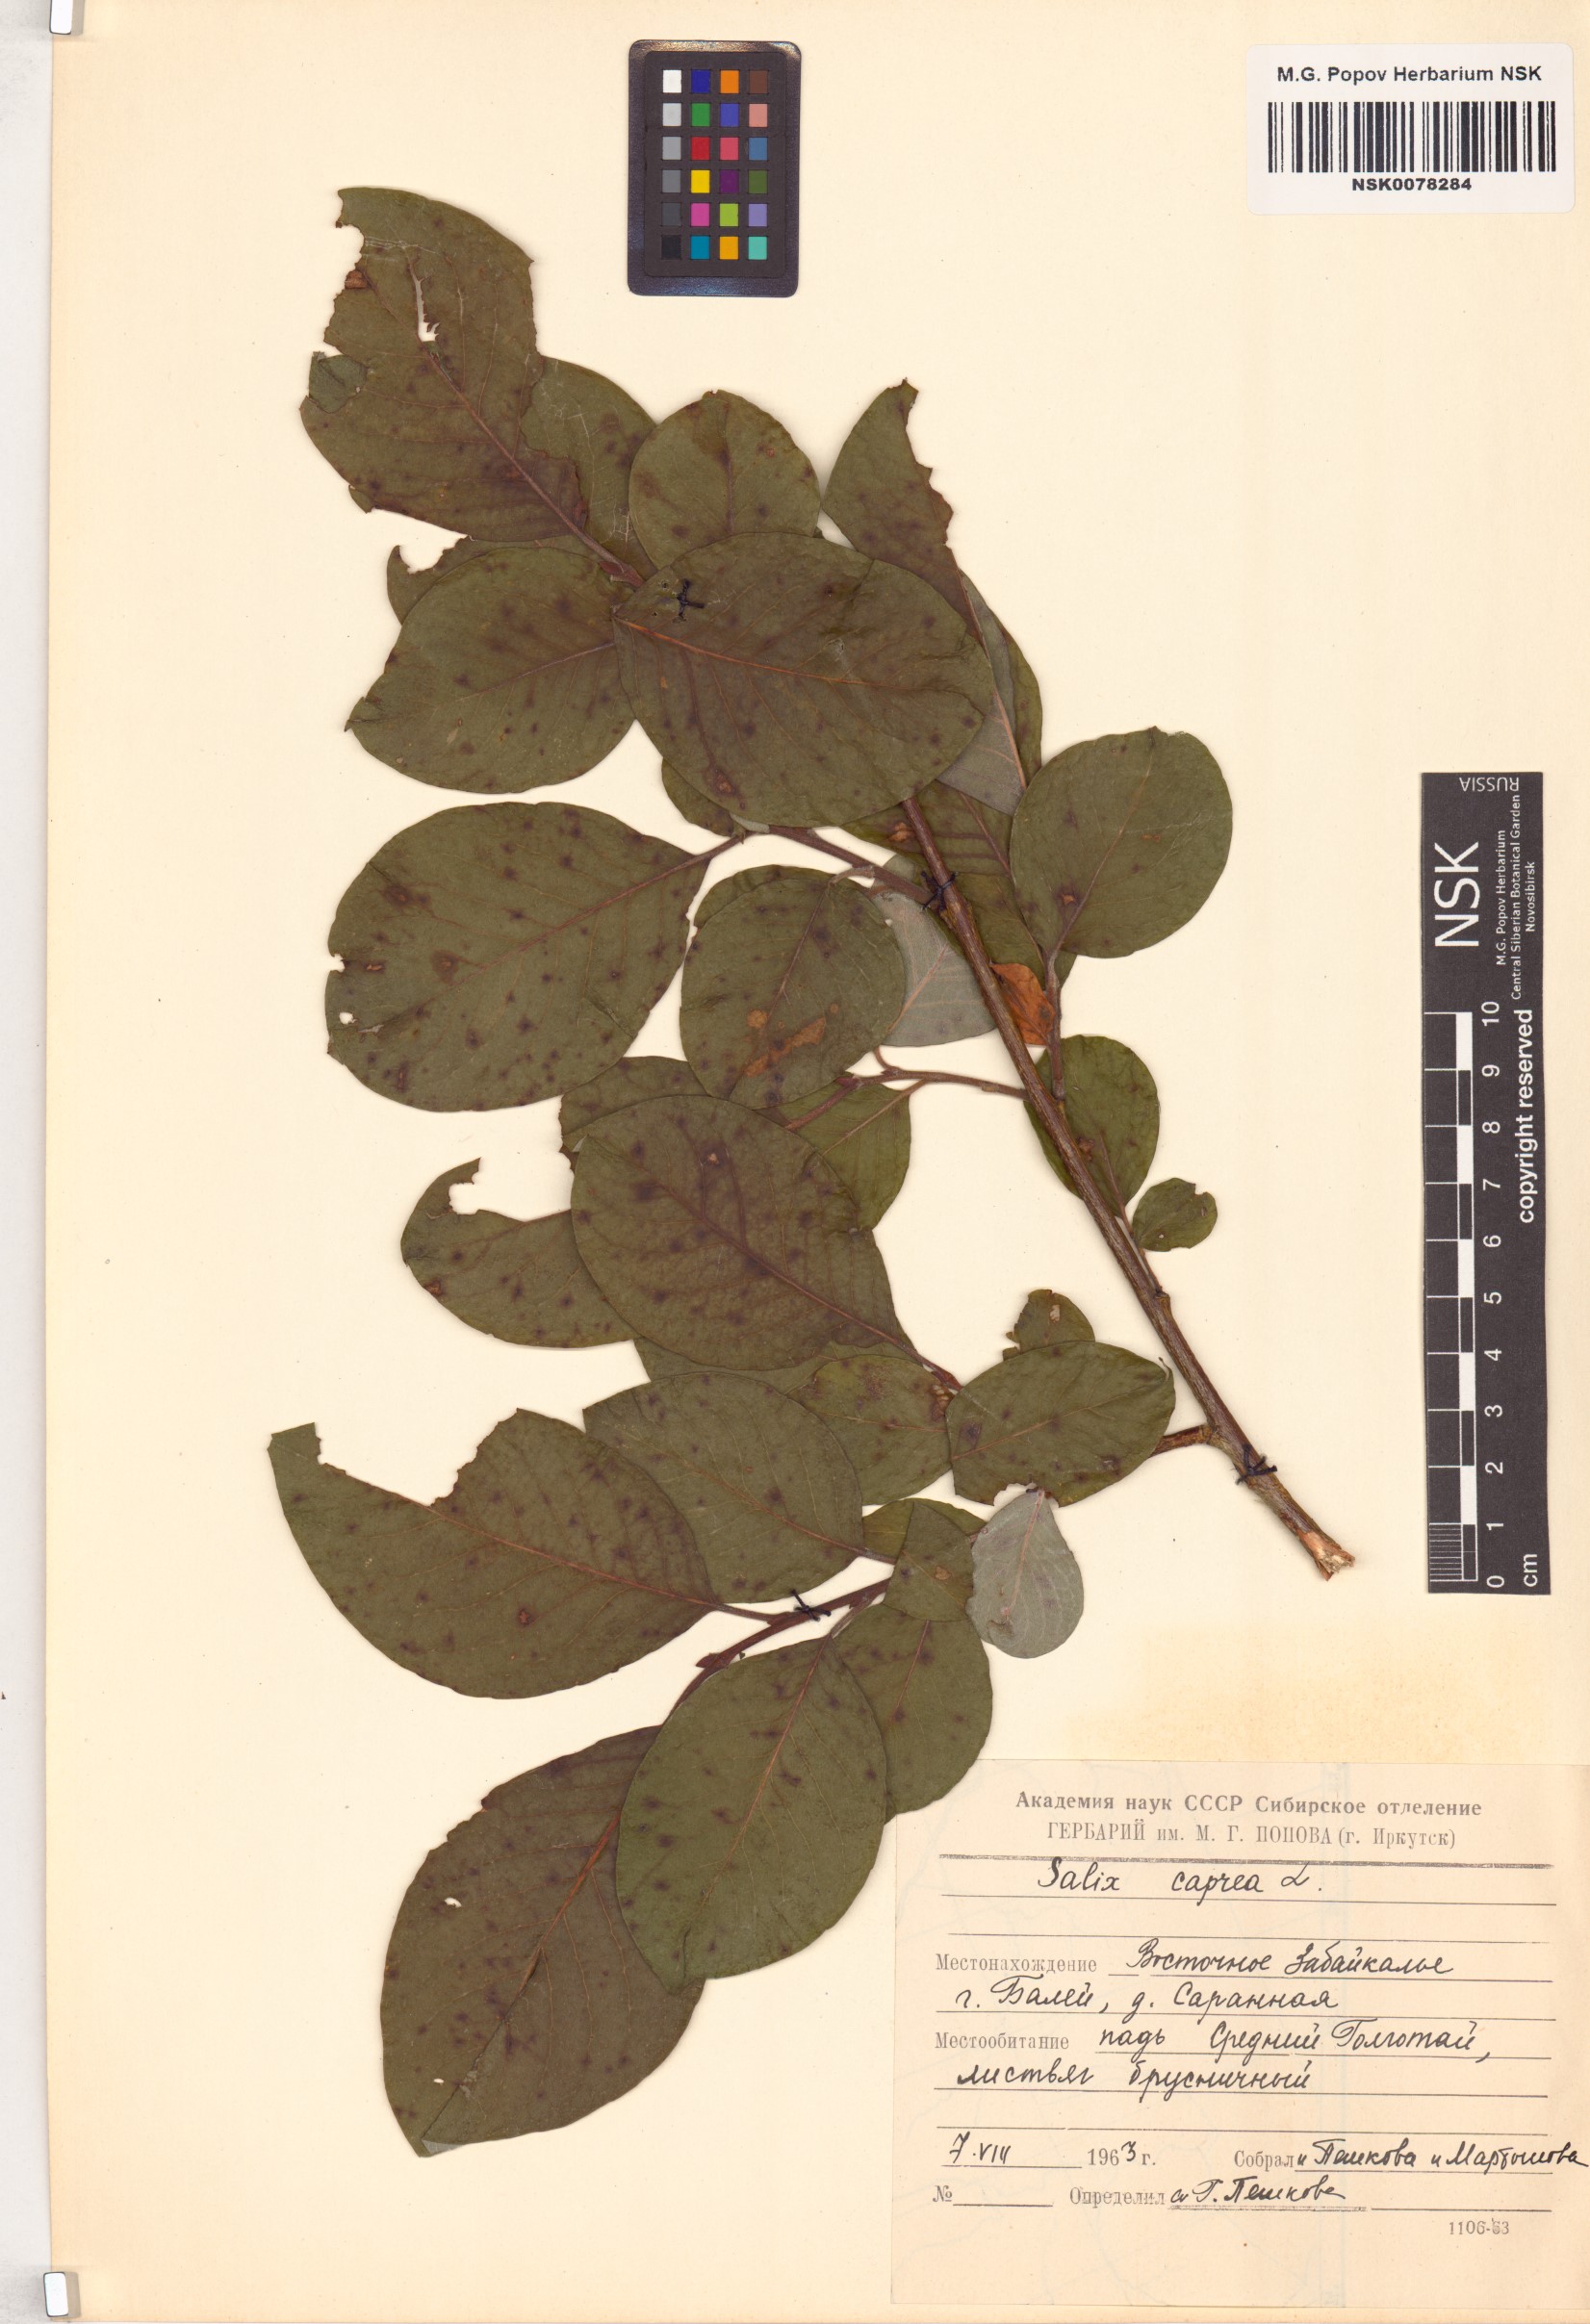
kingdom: Plantae
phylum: Tracheophyta
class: Magnoliopsida
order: Malpighiales
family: Salicaceae
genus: Salix
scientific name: Salix caprea
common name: Goat willow
